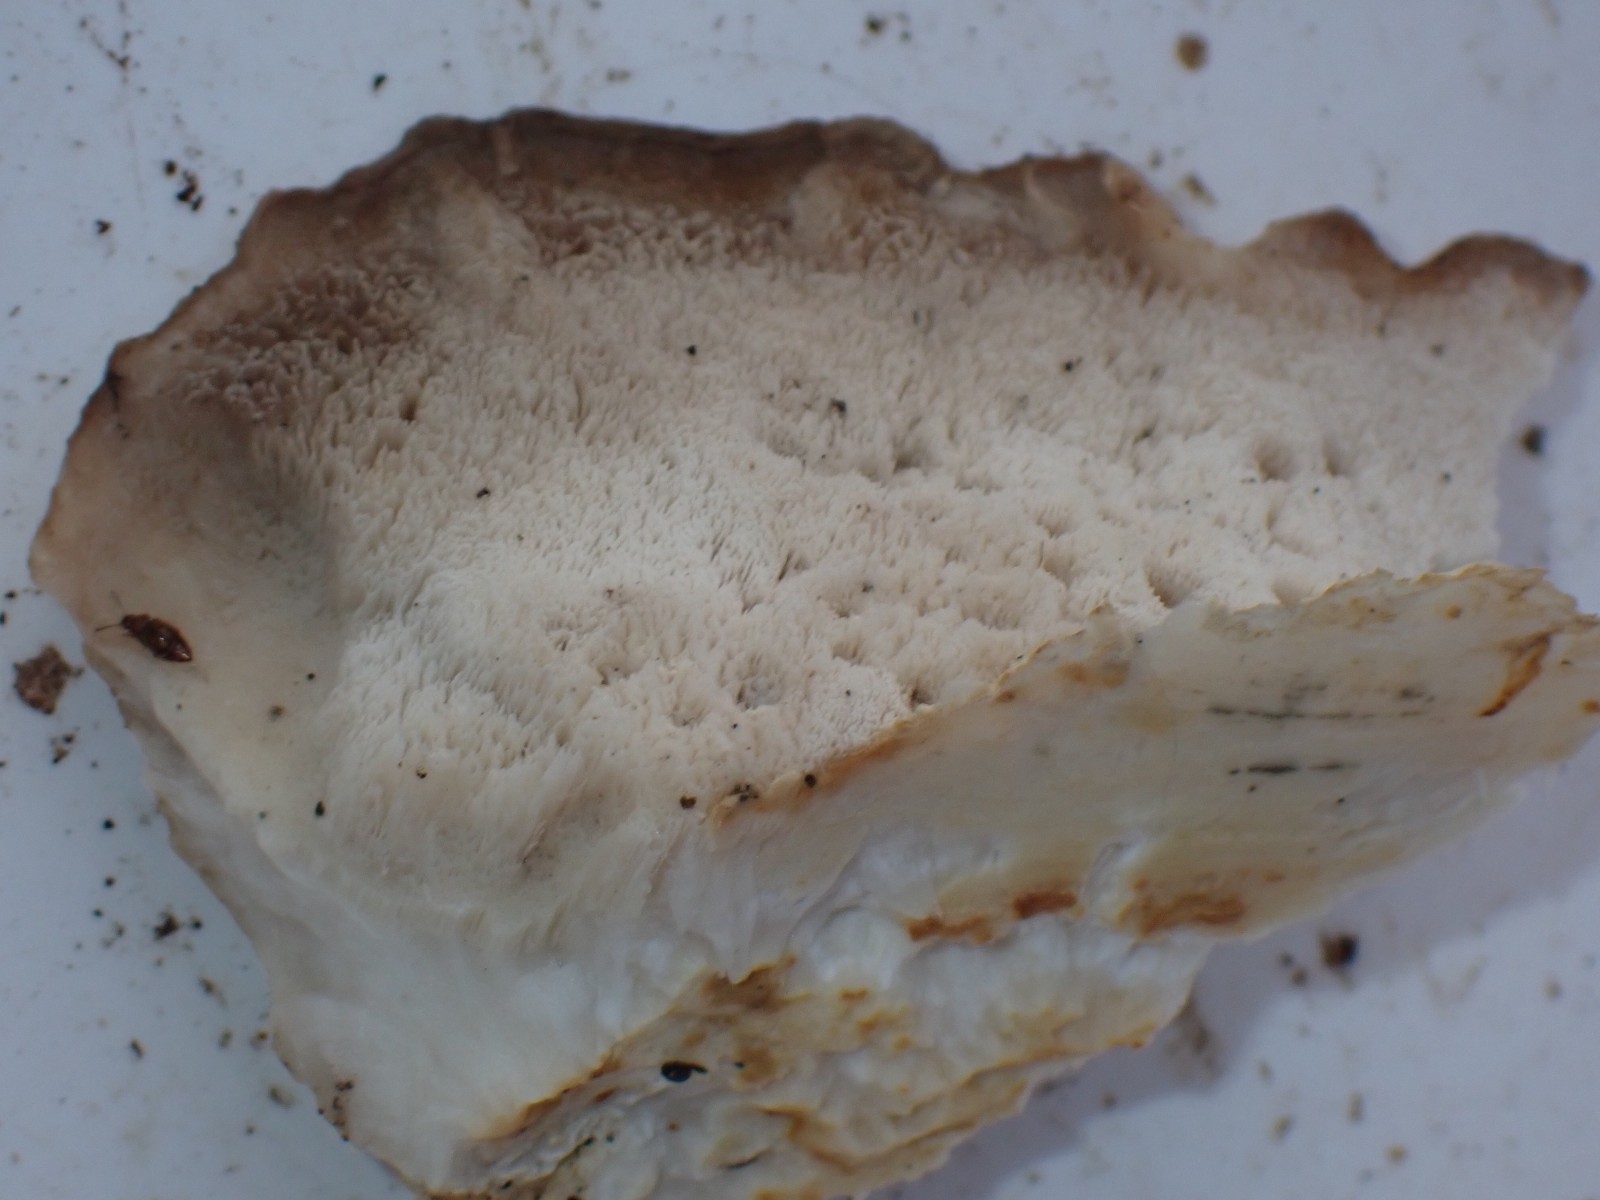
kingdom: Fungi
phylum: Basidiomycota
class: Agaricomycetes
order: Polyporales
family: Incrustoporiaceae
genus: Tyromyces
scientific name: Tyromyces lacteus
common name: mælkehvid kødporesvamp
